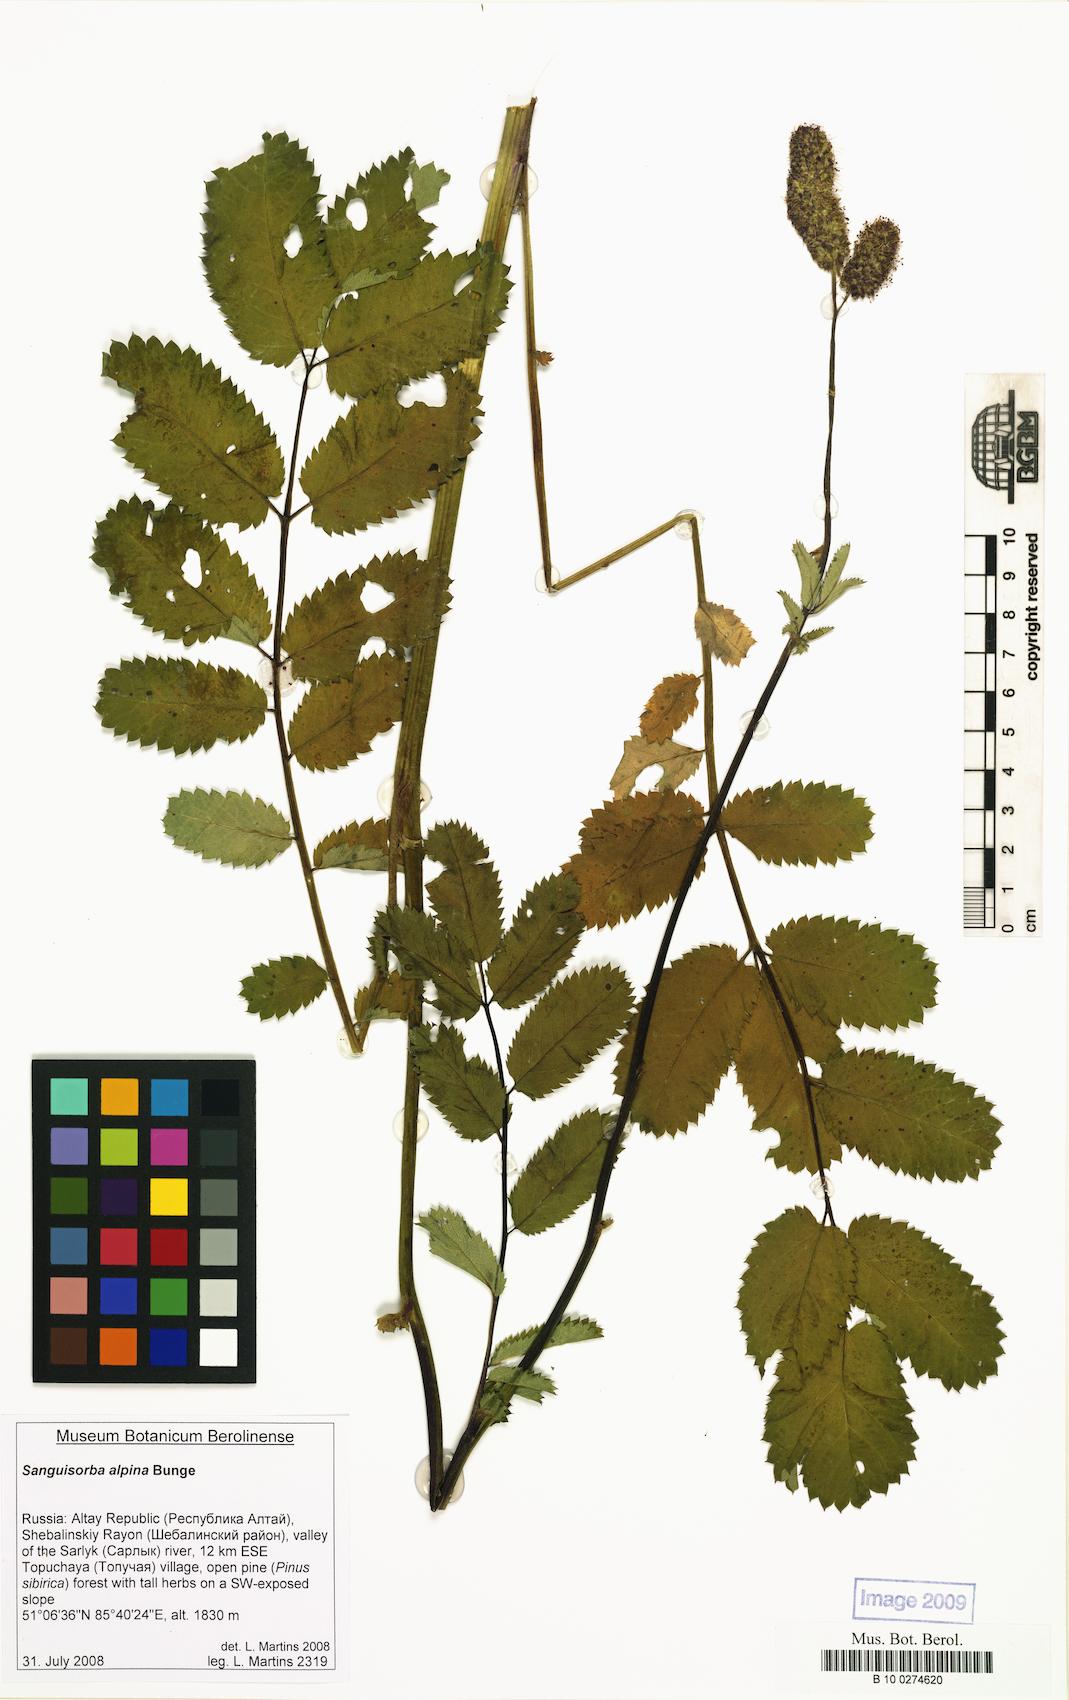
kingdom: Plantae
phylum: Tracheophyta
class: Magnoliopsida
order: Rosales
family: Rosaceae
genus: Sanguisorba
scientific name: Sanguisorba alpina
